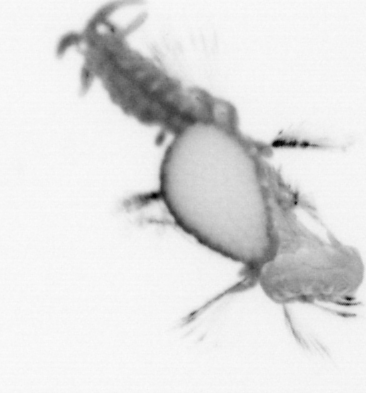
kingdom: Animalia
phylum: Annelida
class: Polychaeta
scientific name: Polychaeta
